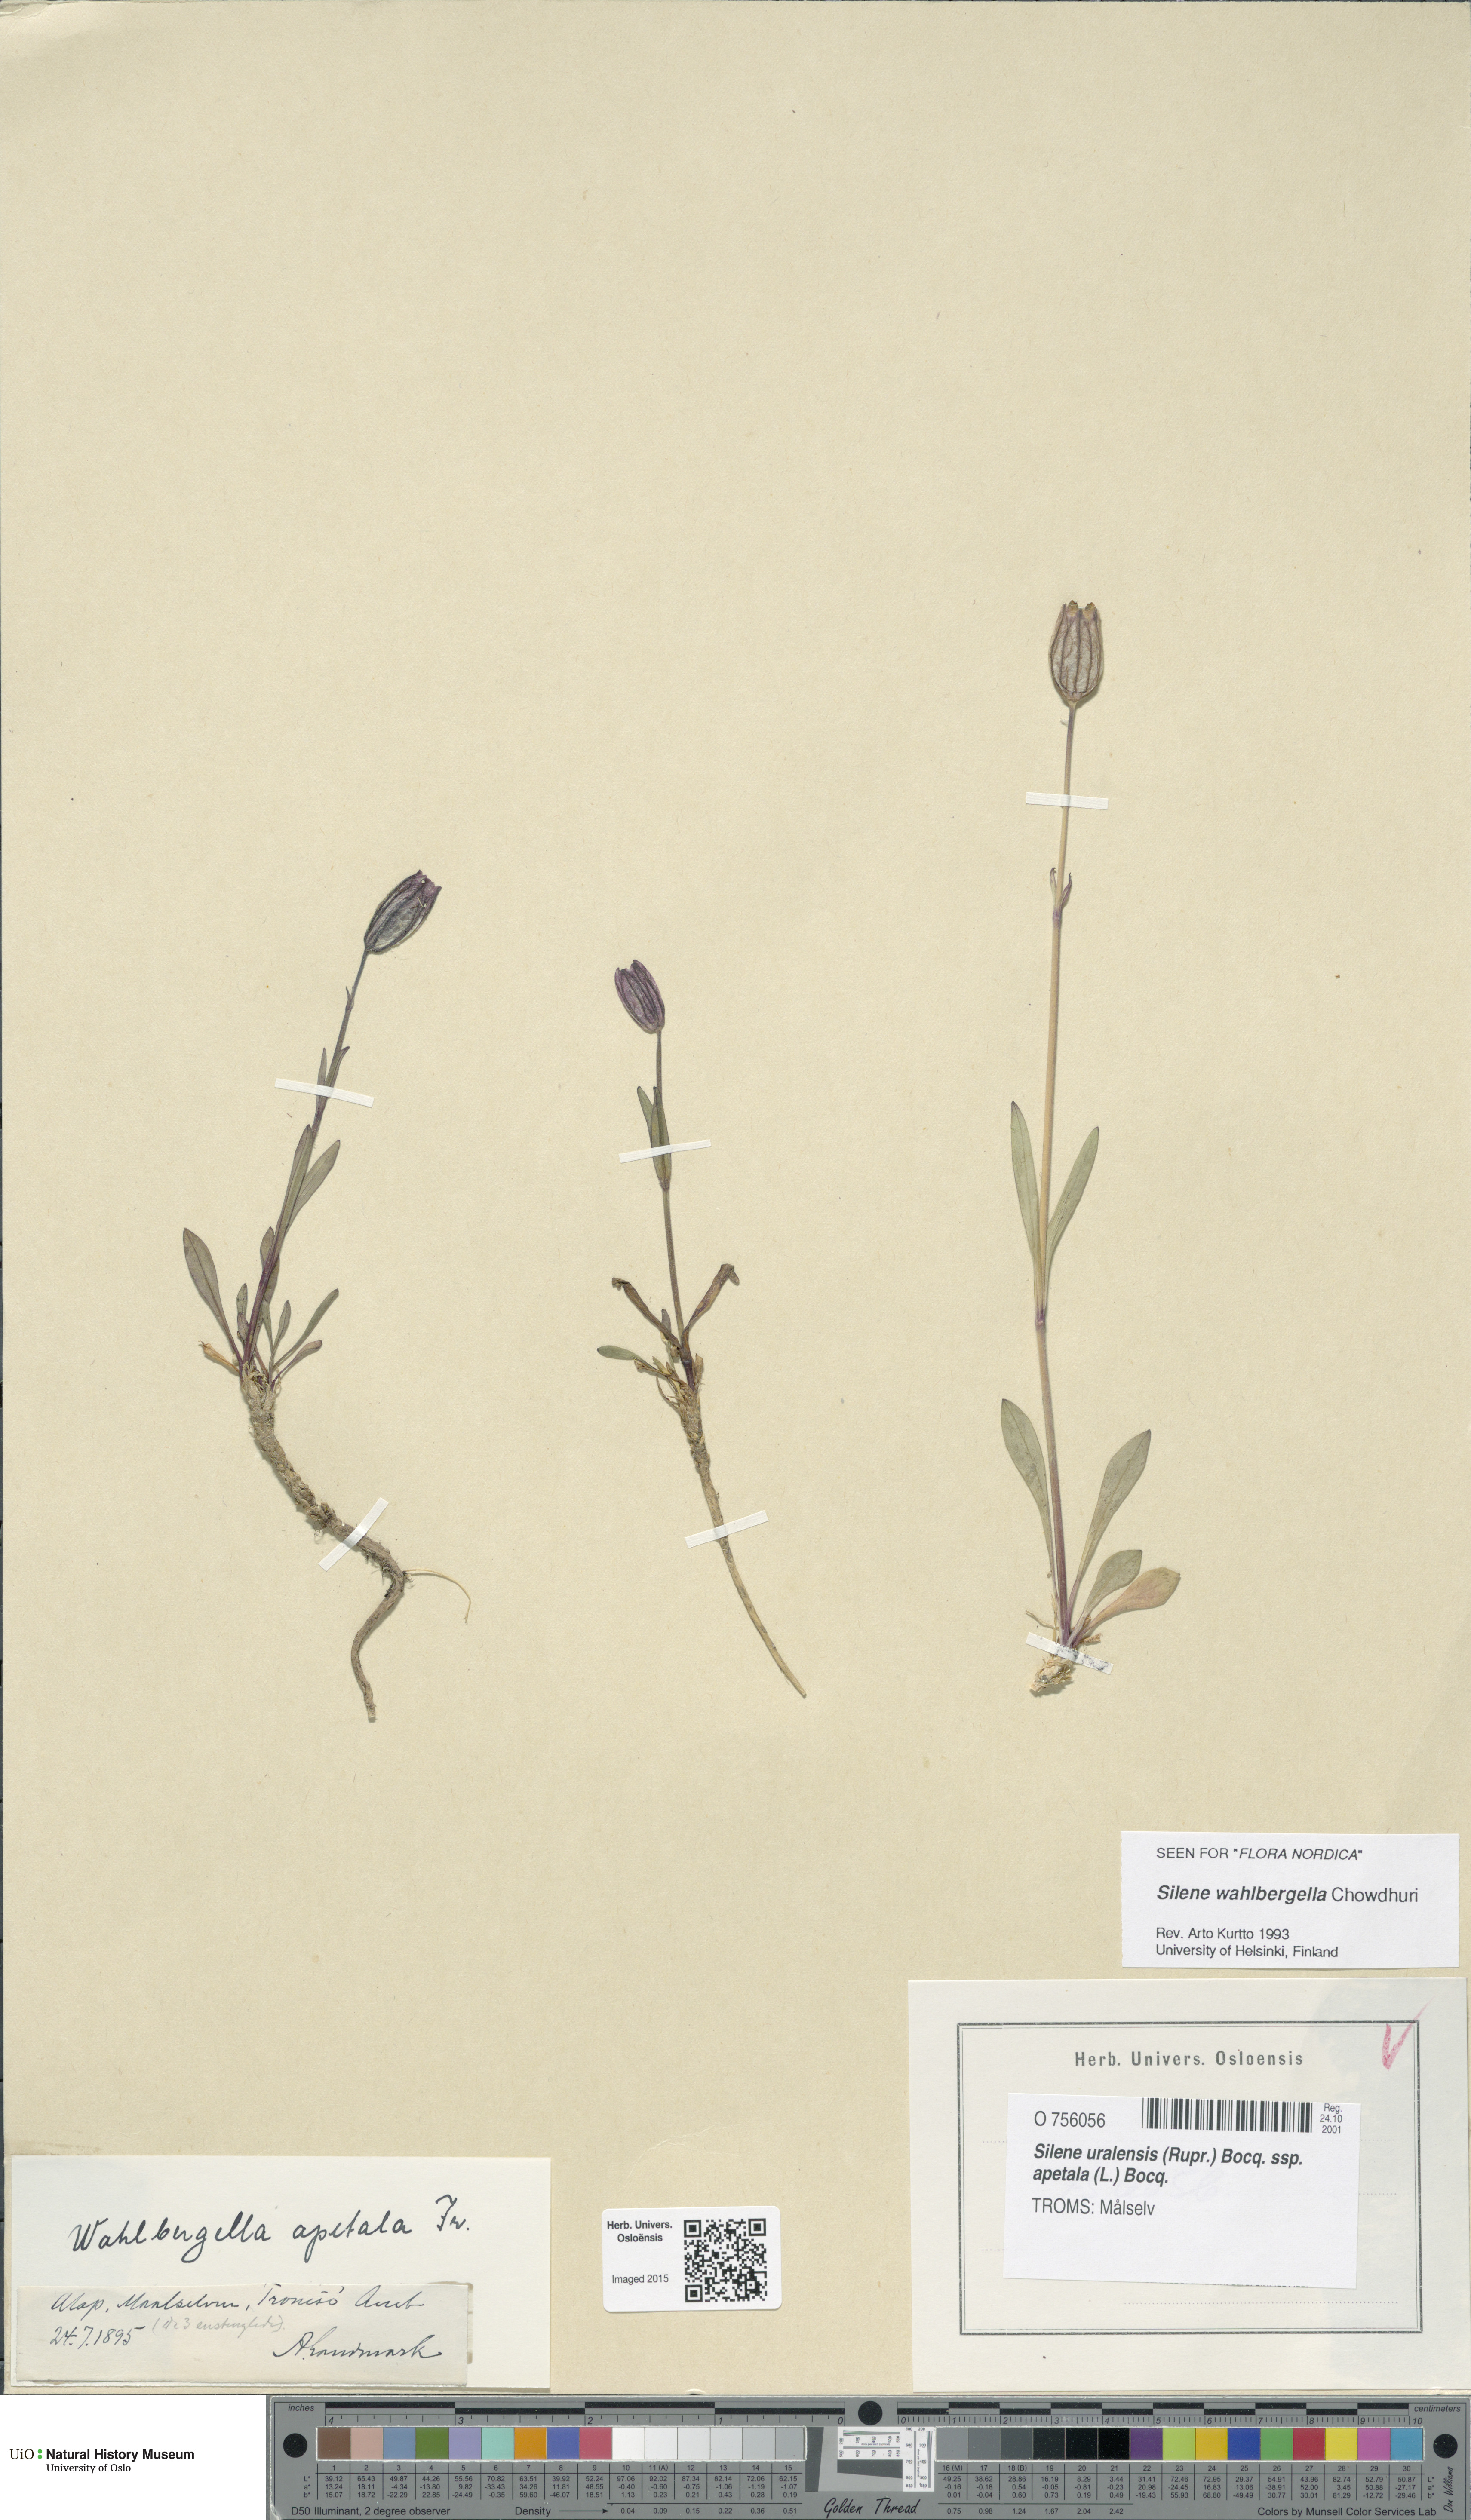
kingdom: Plantae
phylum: Tracheophyta
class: Magnoliopsida
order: Caryophyllales
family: Caryophyllaceae
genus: Silene
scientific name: Silene wahlbergella
